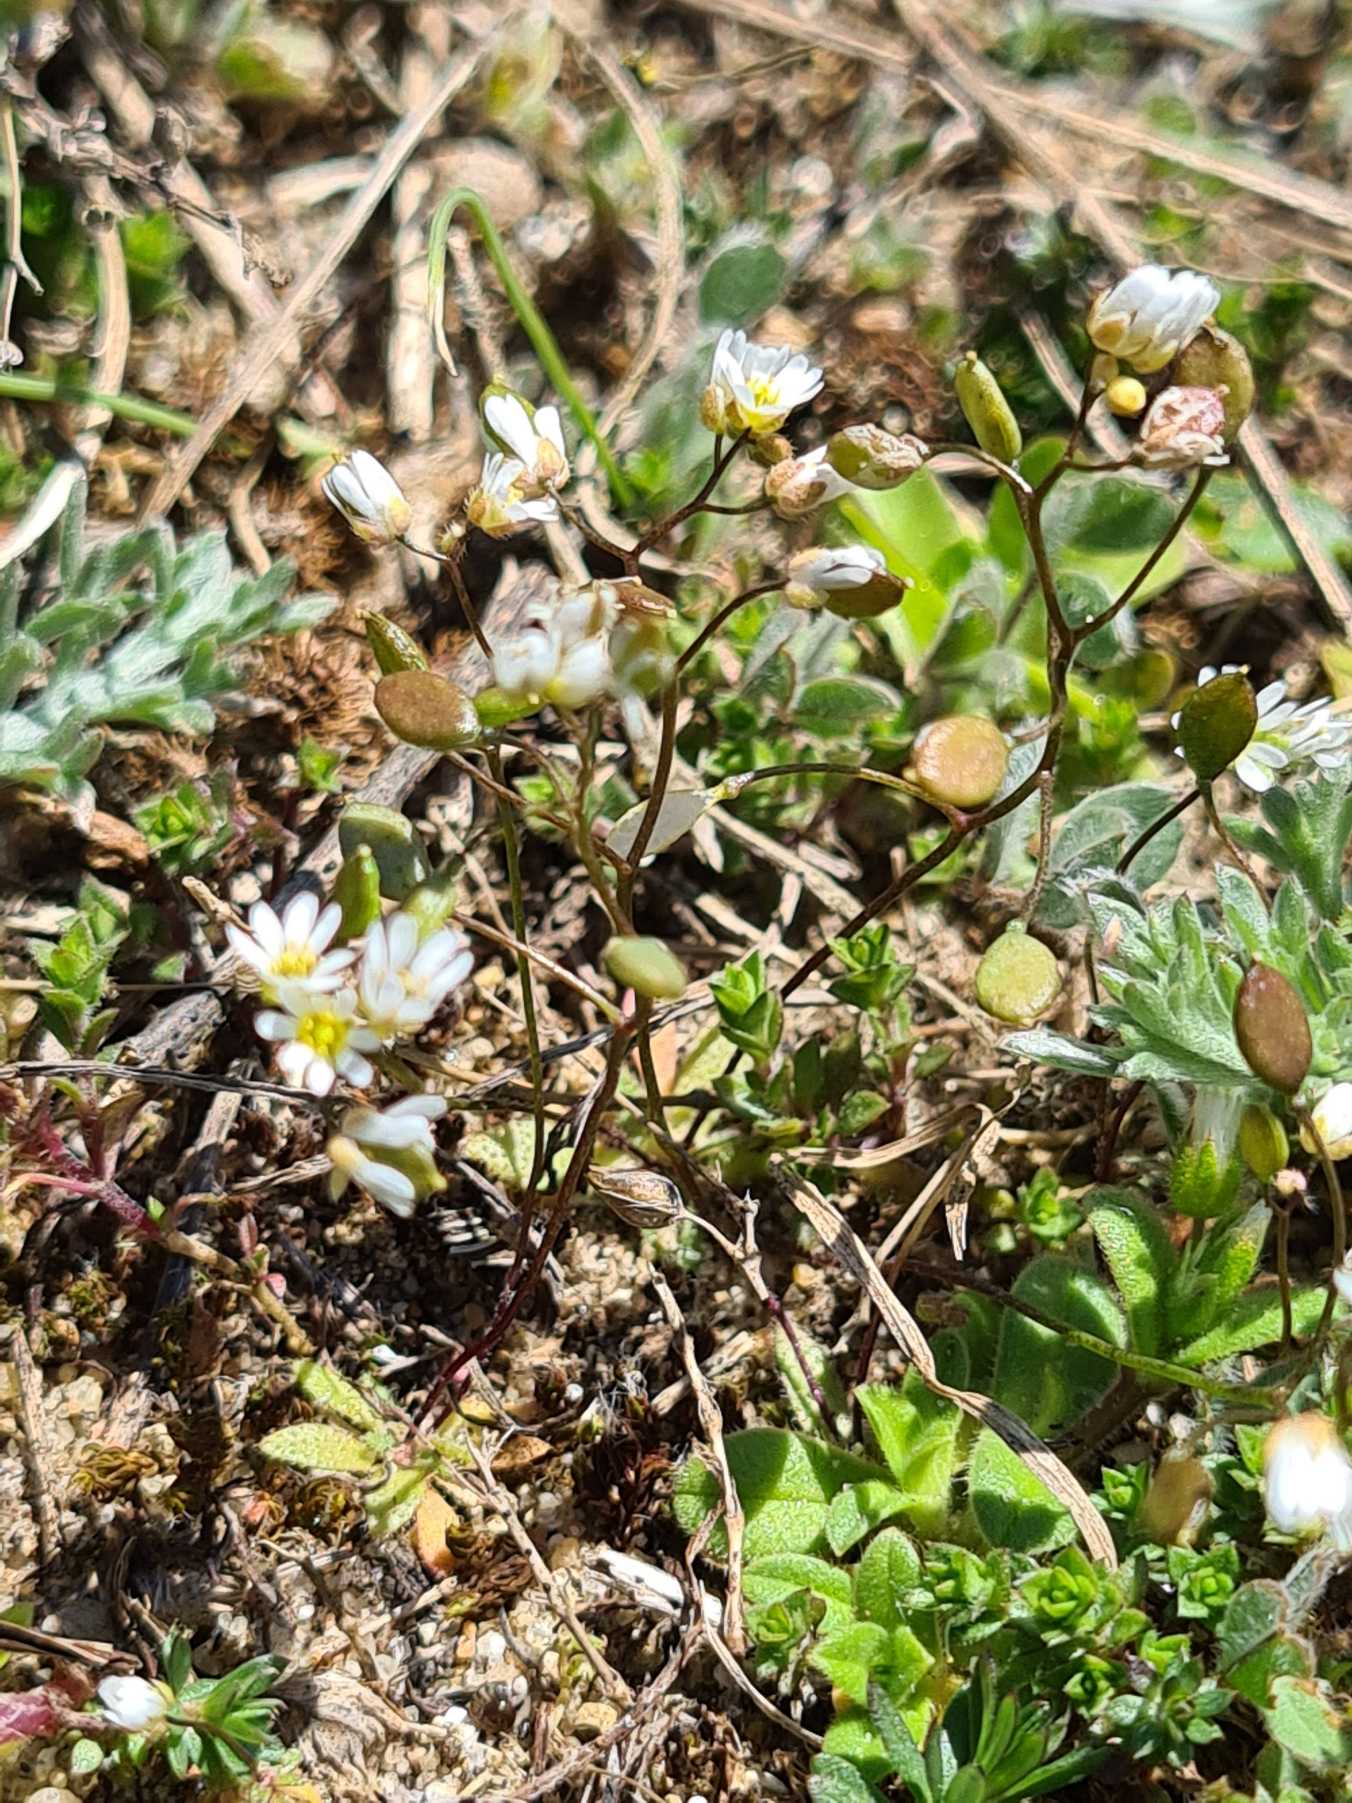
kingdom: Plantae
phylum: Tracheophyta
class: Magnoliopsida
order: Brassicales
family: Brassicaceae
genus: Draba
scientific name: Draba verna
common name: Vår-gæslingeblomst
